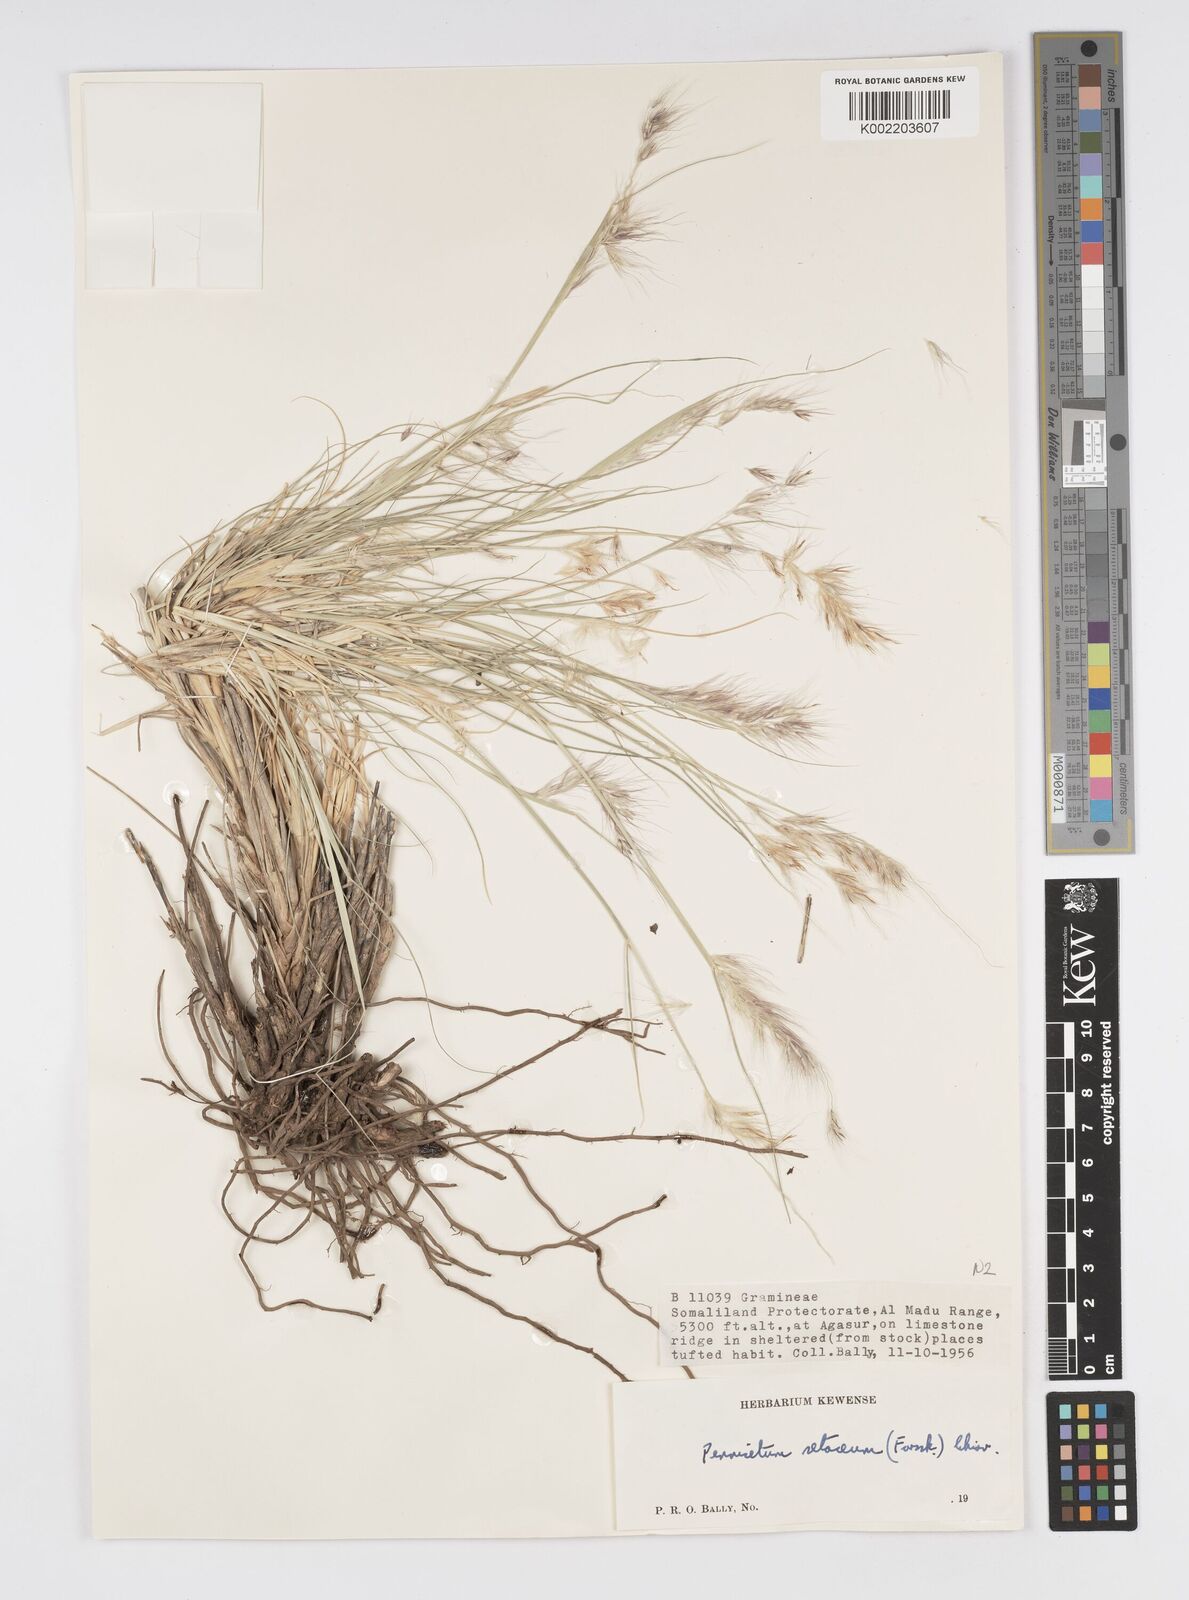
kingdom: Plantae
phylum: Tracheophyta
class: Liliopsida
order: Poales
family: Poaceae
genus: Cenchrus
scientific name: Cenchrus setaceus
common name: Crimson fountaingrass
